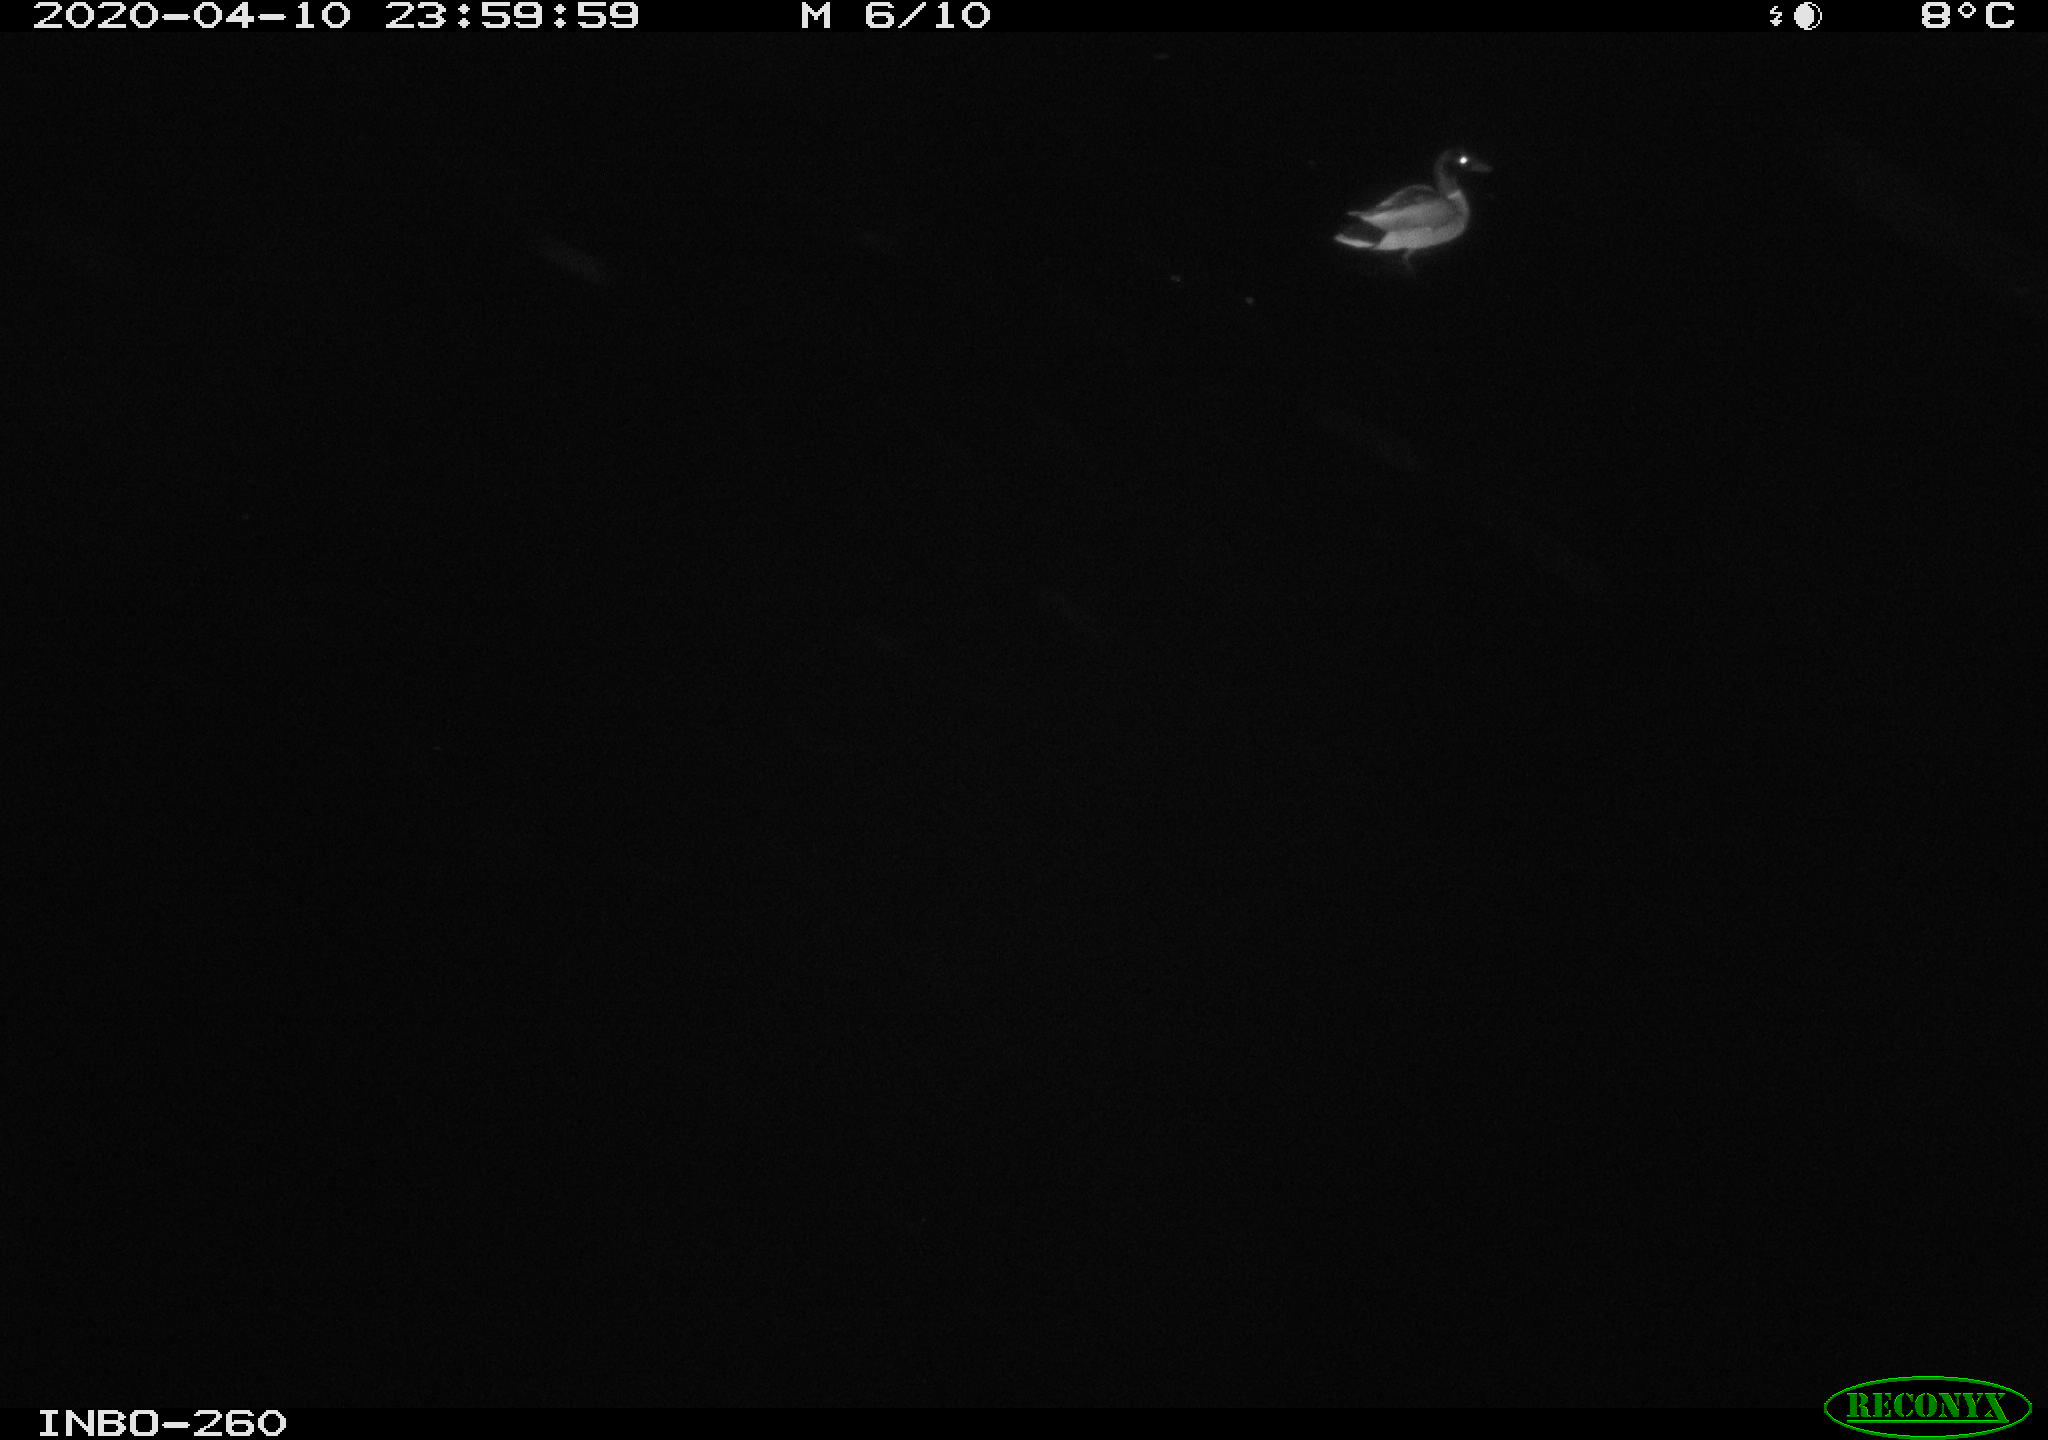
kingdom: Animalia
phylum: Chordata
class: Aves
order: Anseriformes
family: Anatidae
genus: Anas
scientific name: Anas platyrhynchos
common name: Mallard
